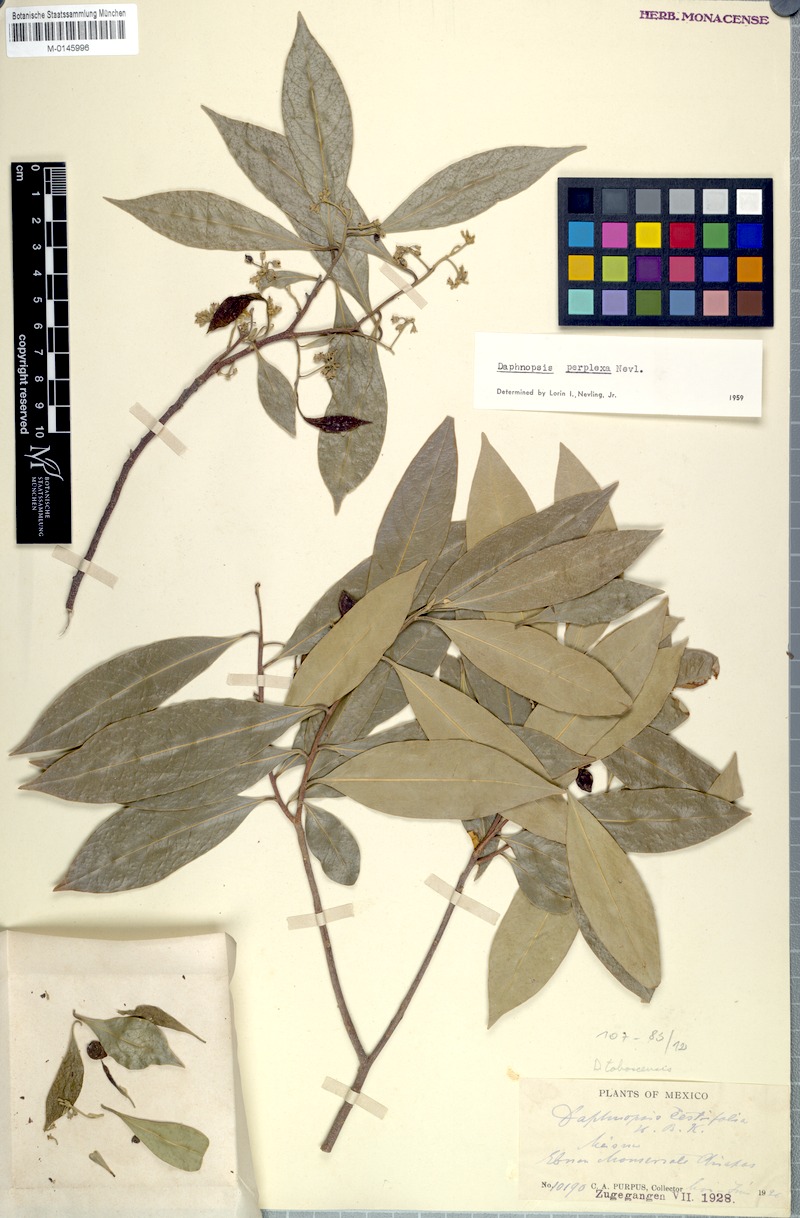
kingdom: Plantae
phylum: Tracheophyta
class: Magnoliopsida
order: Malvales
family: Thymelaeaceae
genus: Daphnopsis
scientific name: Daphnopsis americana
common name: Maho
